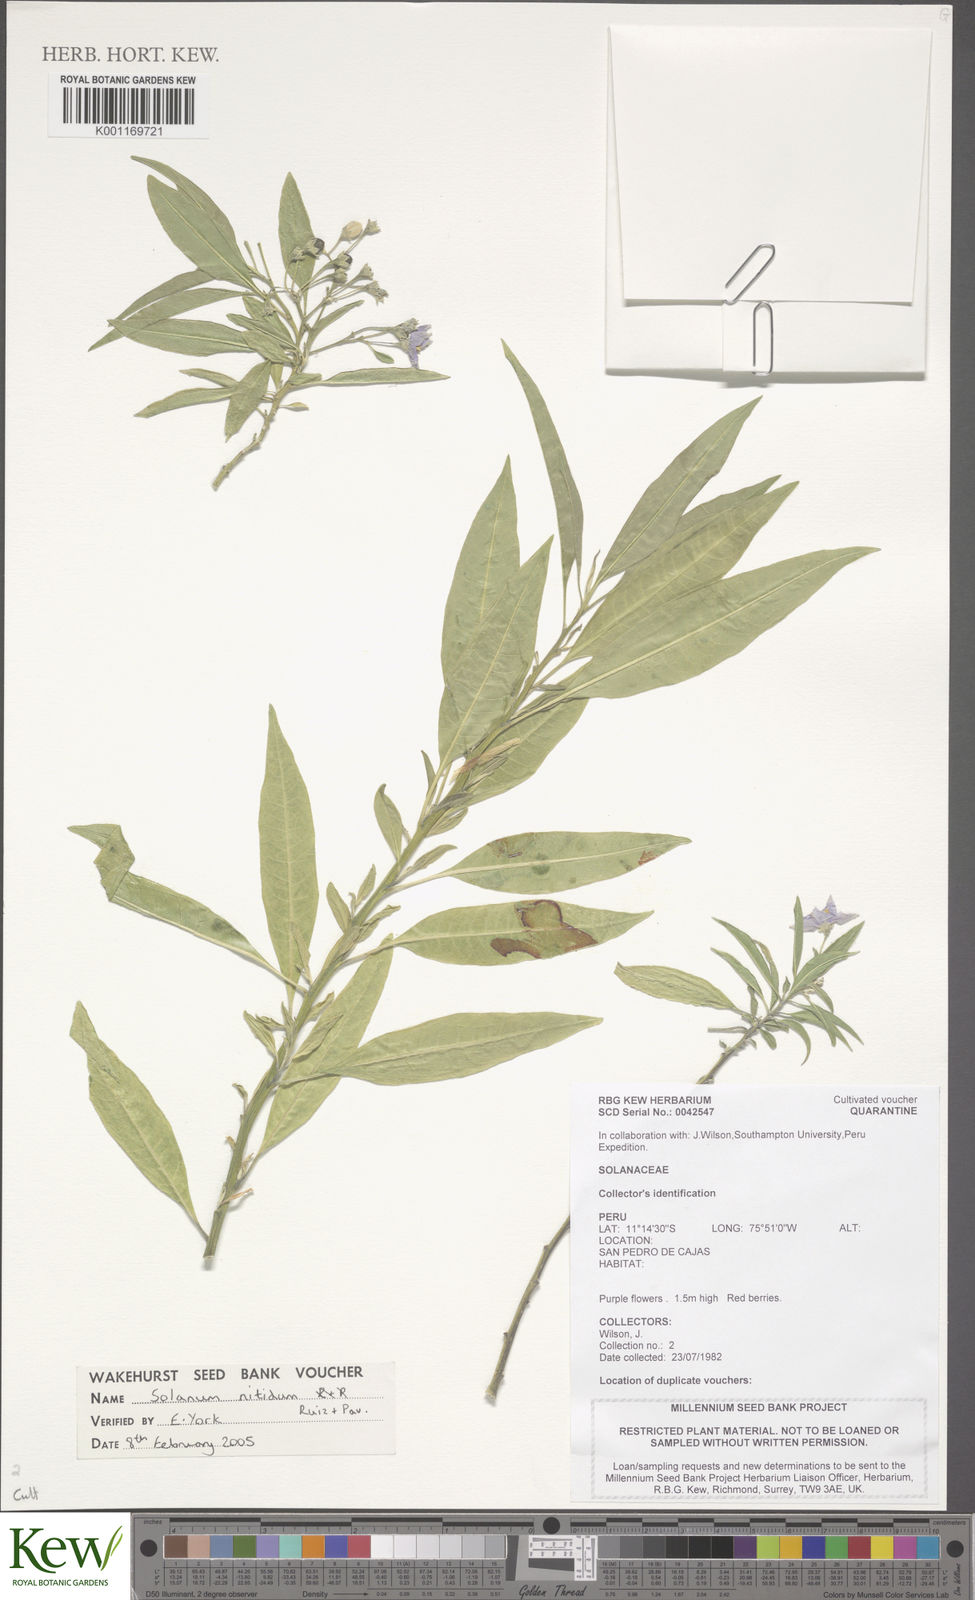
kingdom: Plantae
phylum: Tracheophyta
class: Magnoliopsida
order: Solanales
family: Solanaceae
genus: Solanum
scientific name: Solanum nitidum
